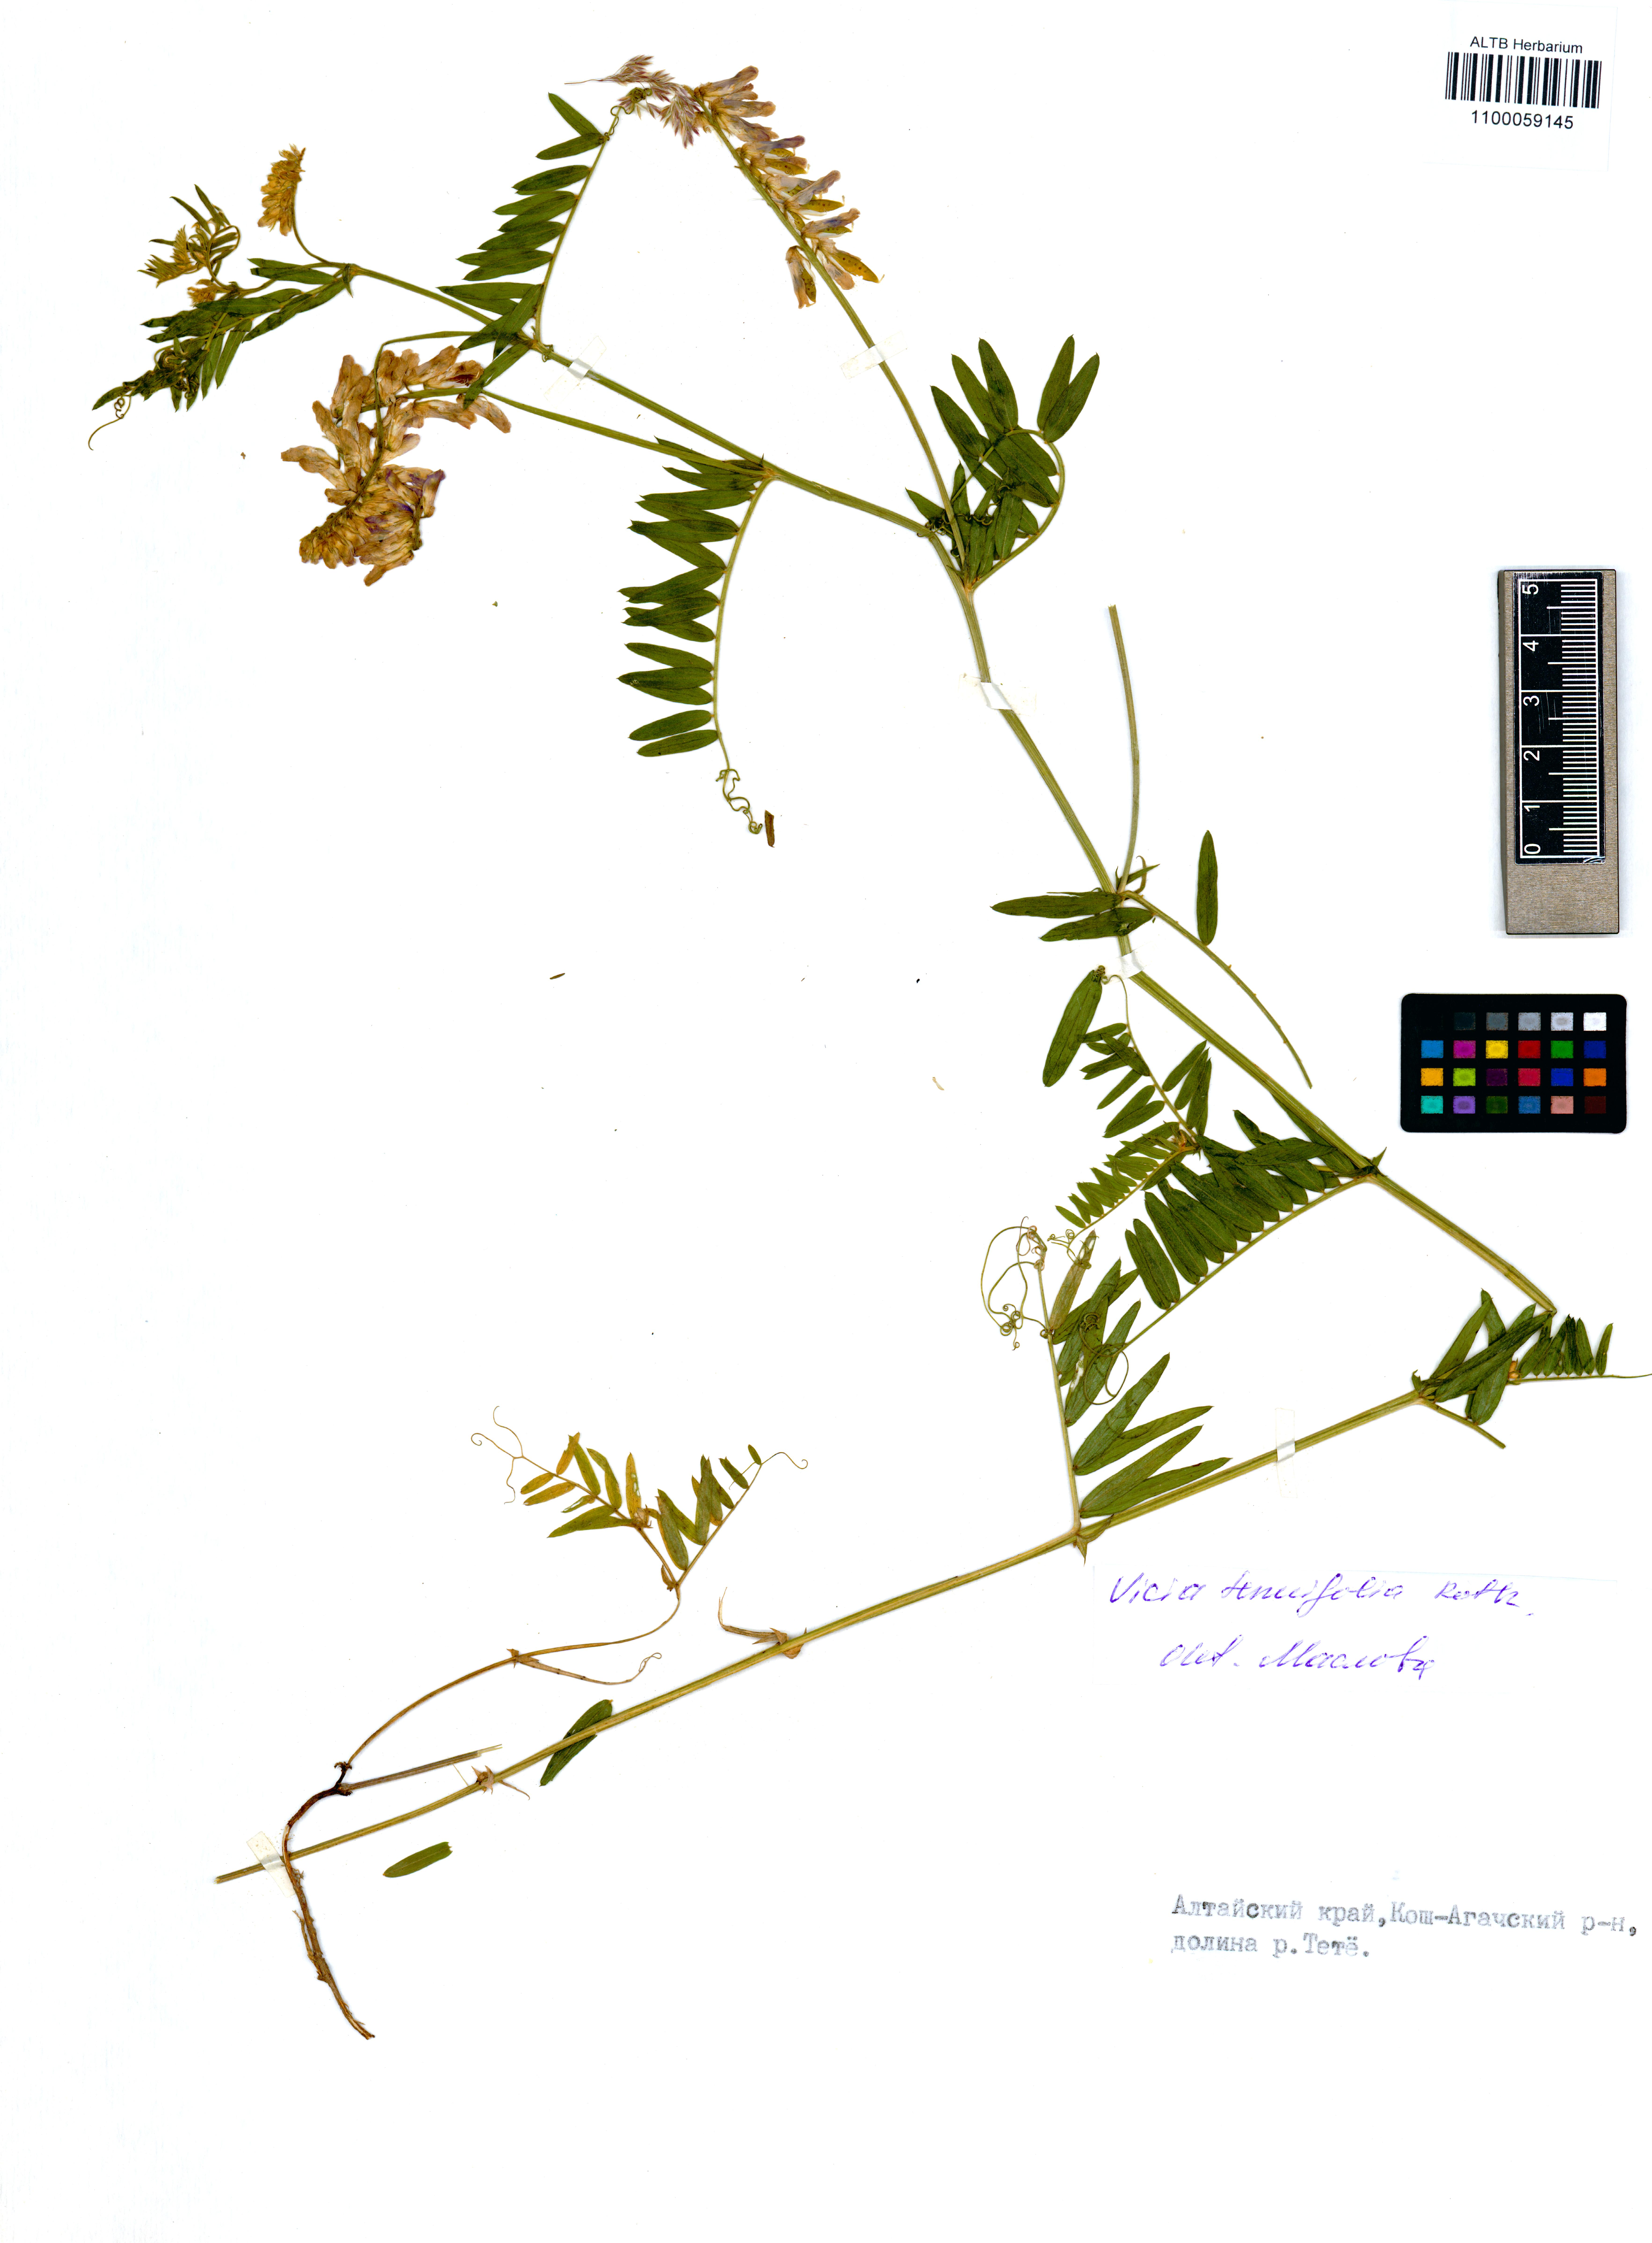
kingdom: Plantae
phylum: Tracheophyta
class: Magnoliopsida
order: Fabales
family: Fabaceae
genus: Vicia
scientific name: Vicia tenuifolia
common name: Fine-leaved vetch
